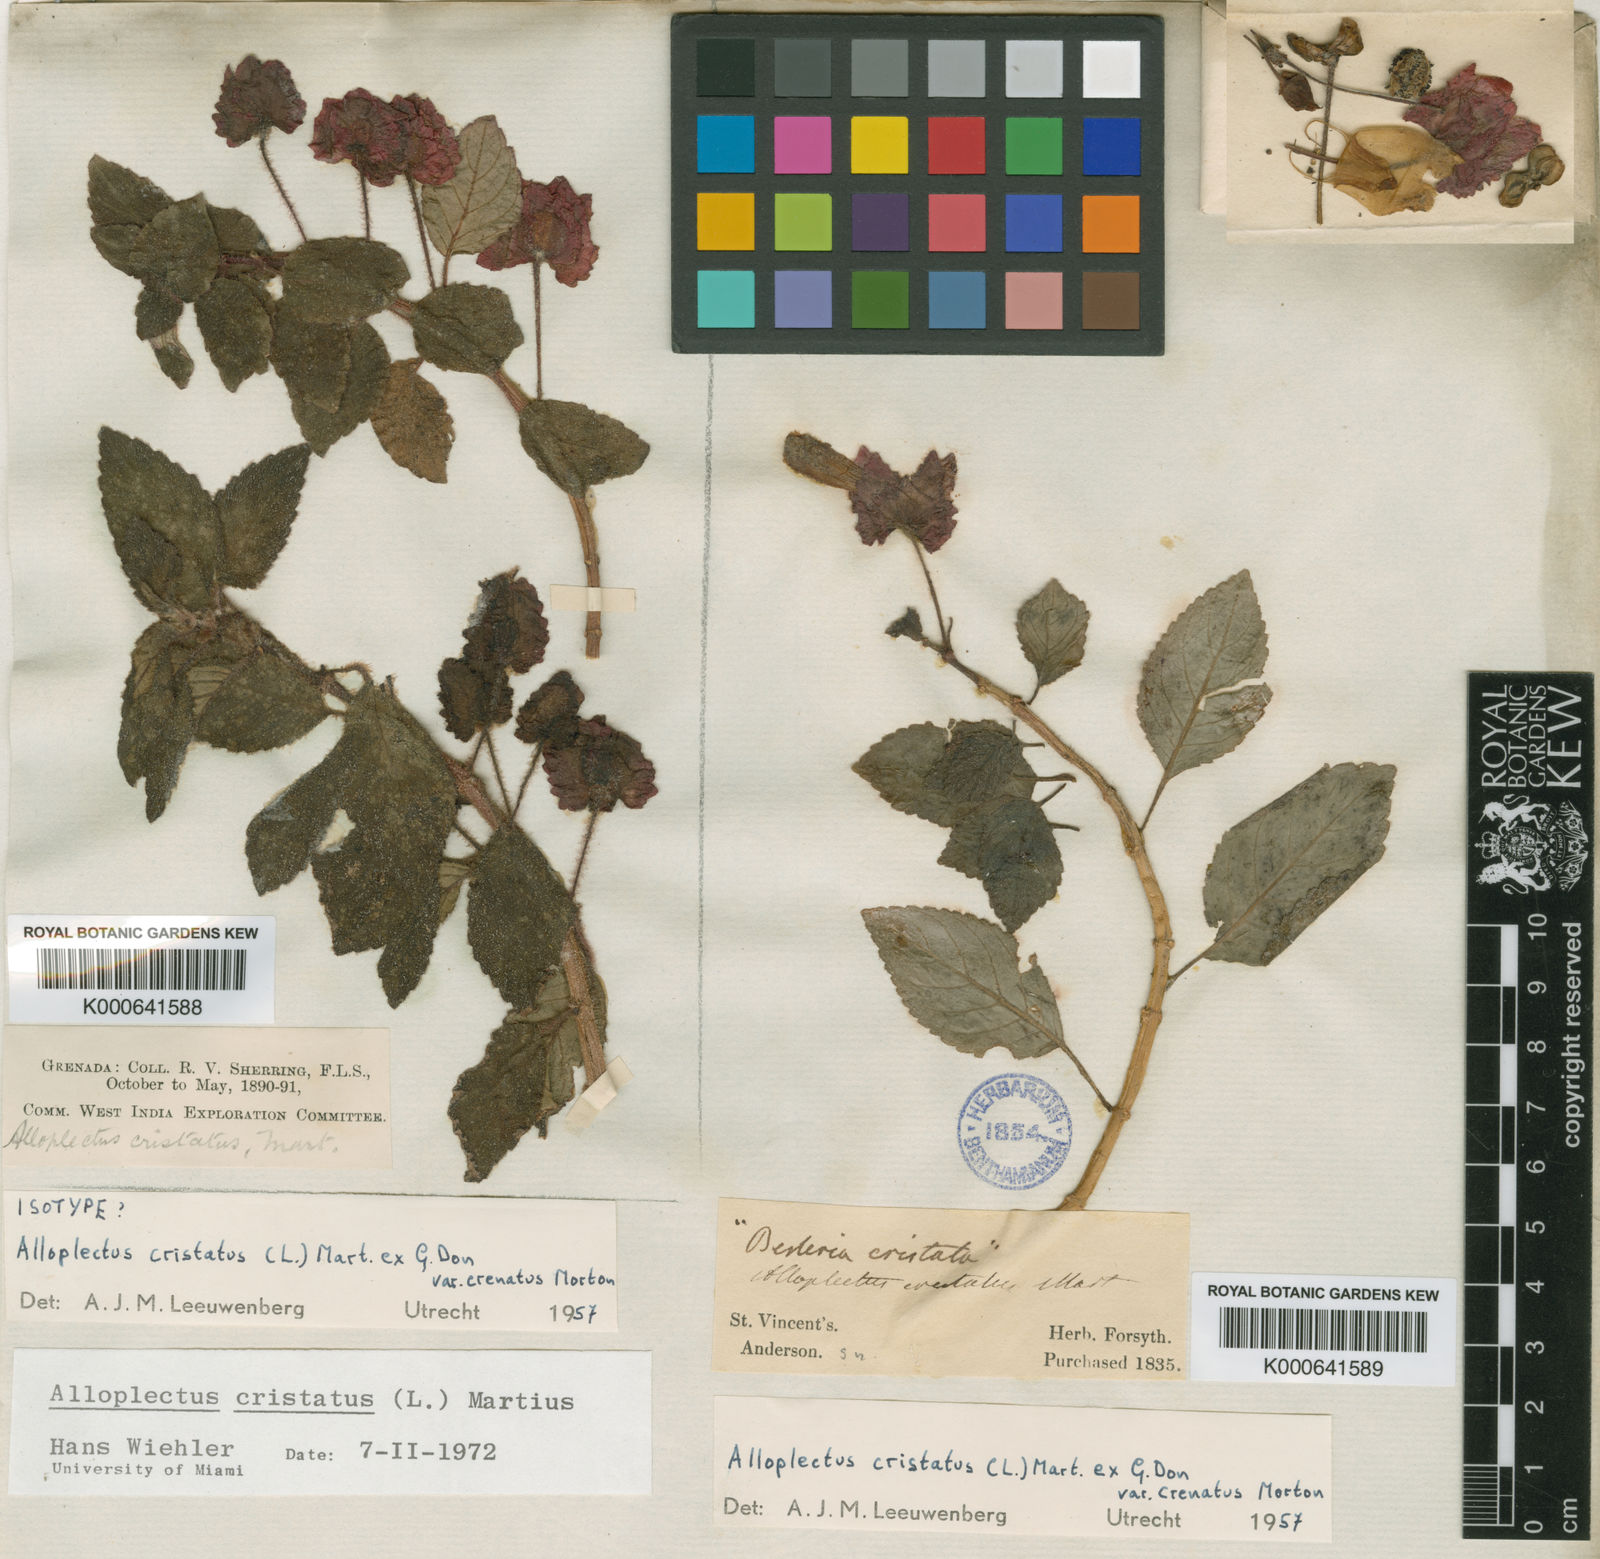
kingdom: Plantae
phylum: Tracheophyta
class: Magnoliopsida
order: Lamiales
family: Gesneriaceae
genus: Alloplectus
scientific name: Alloplectus
